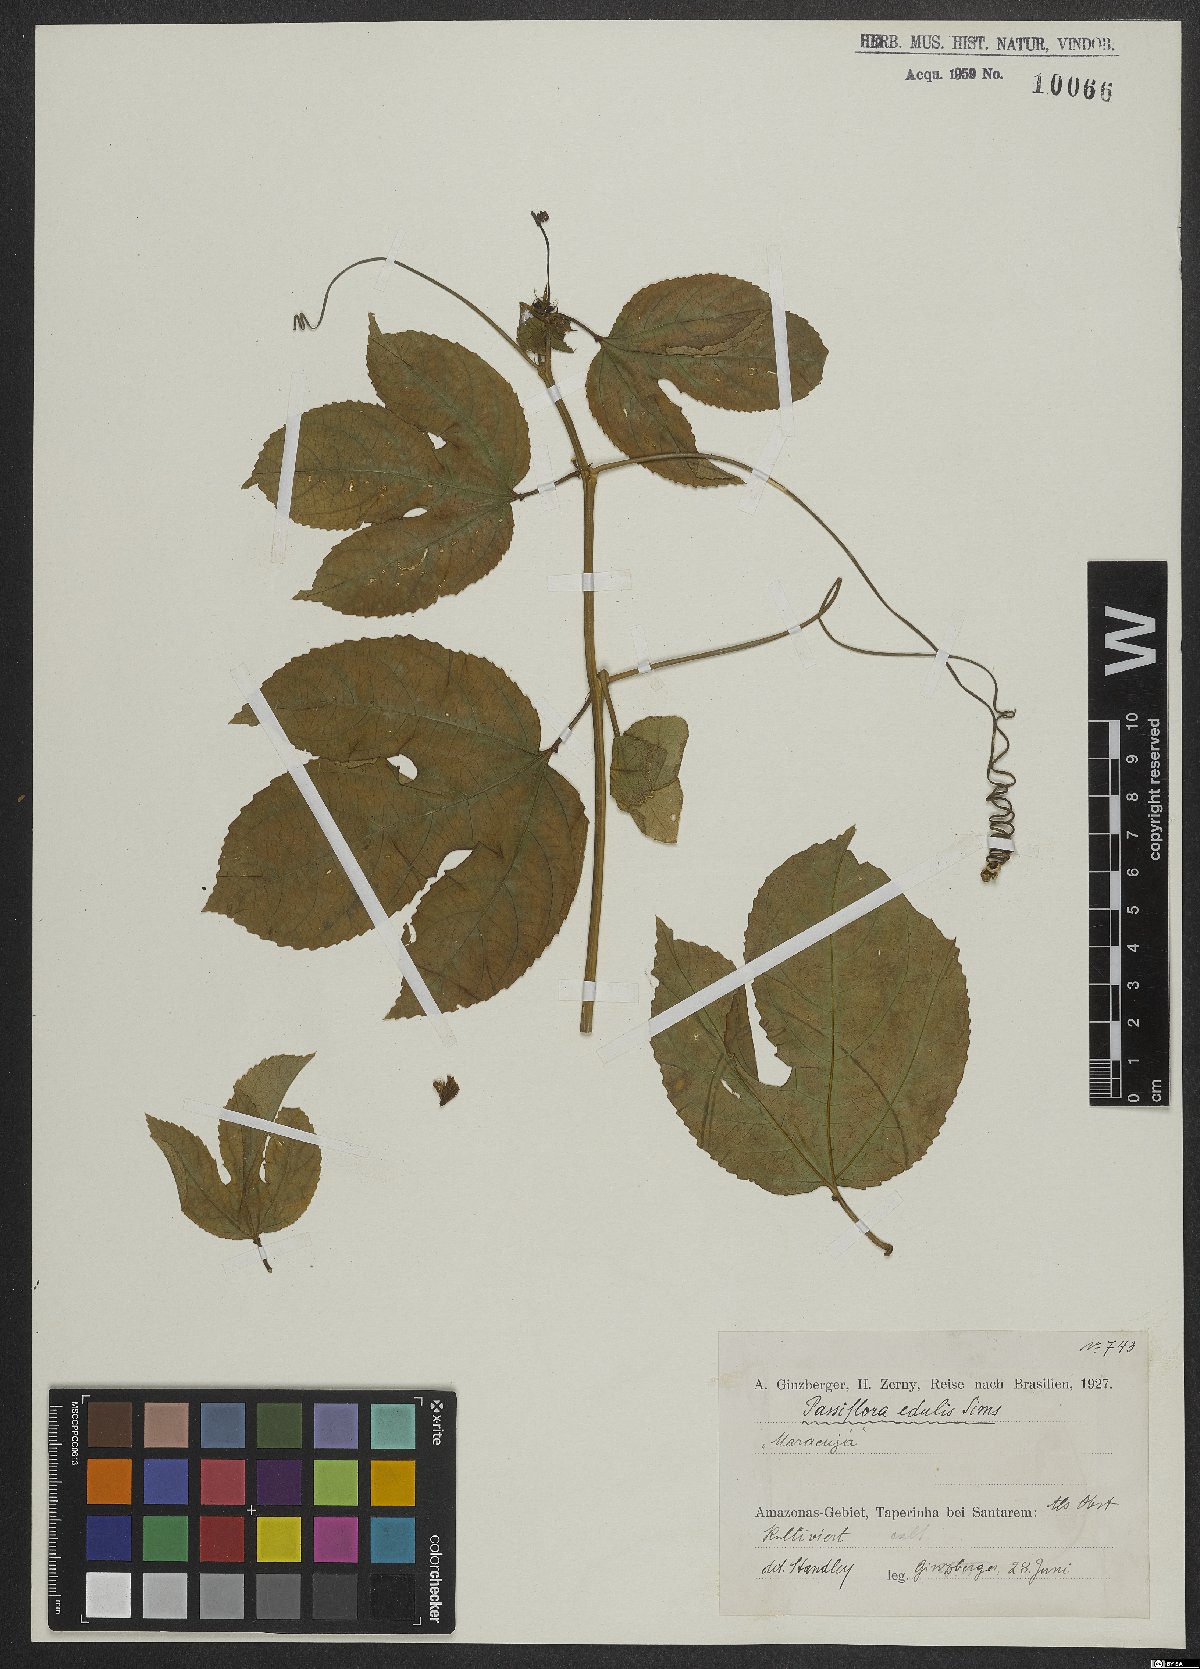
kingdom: Plantae
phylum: Tracheophyta
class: Magnoliopsida
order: Malpighiales
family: Passifloraceae
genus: Passiflora
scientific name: Passiflora edulis
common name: Purple granadilla
